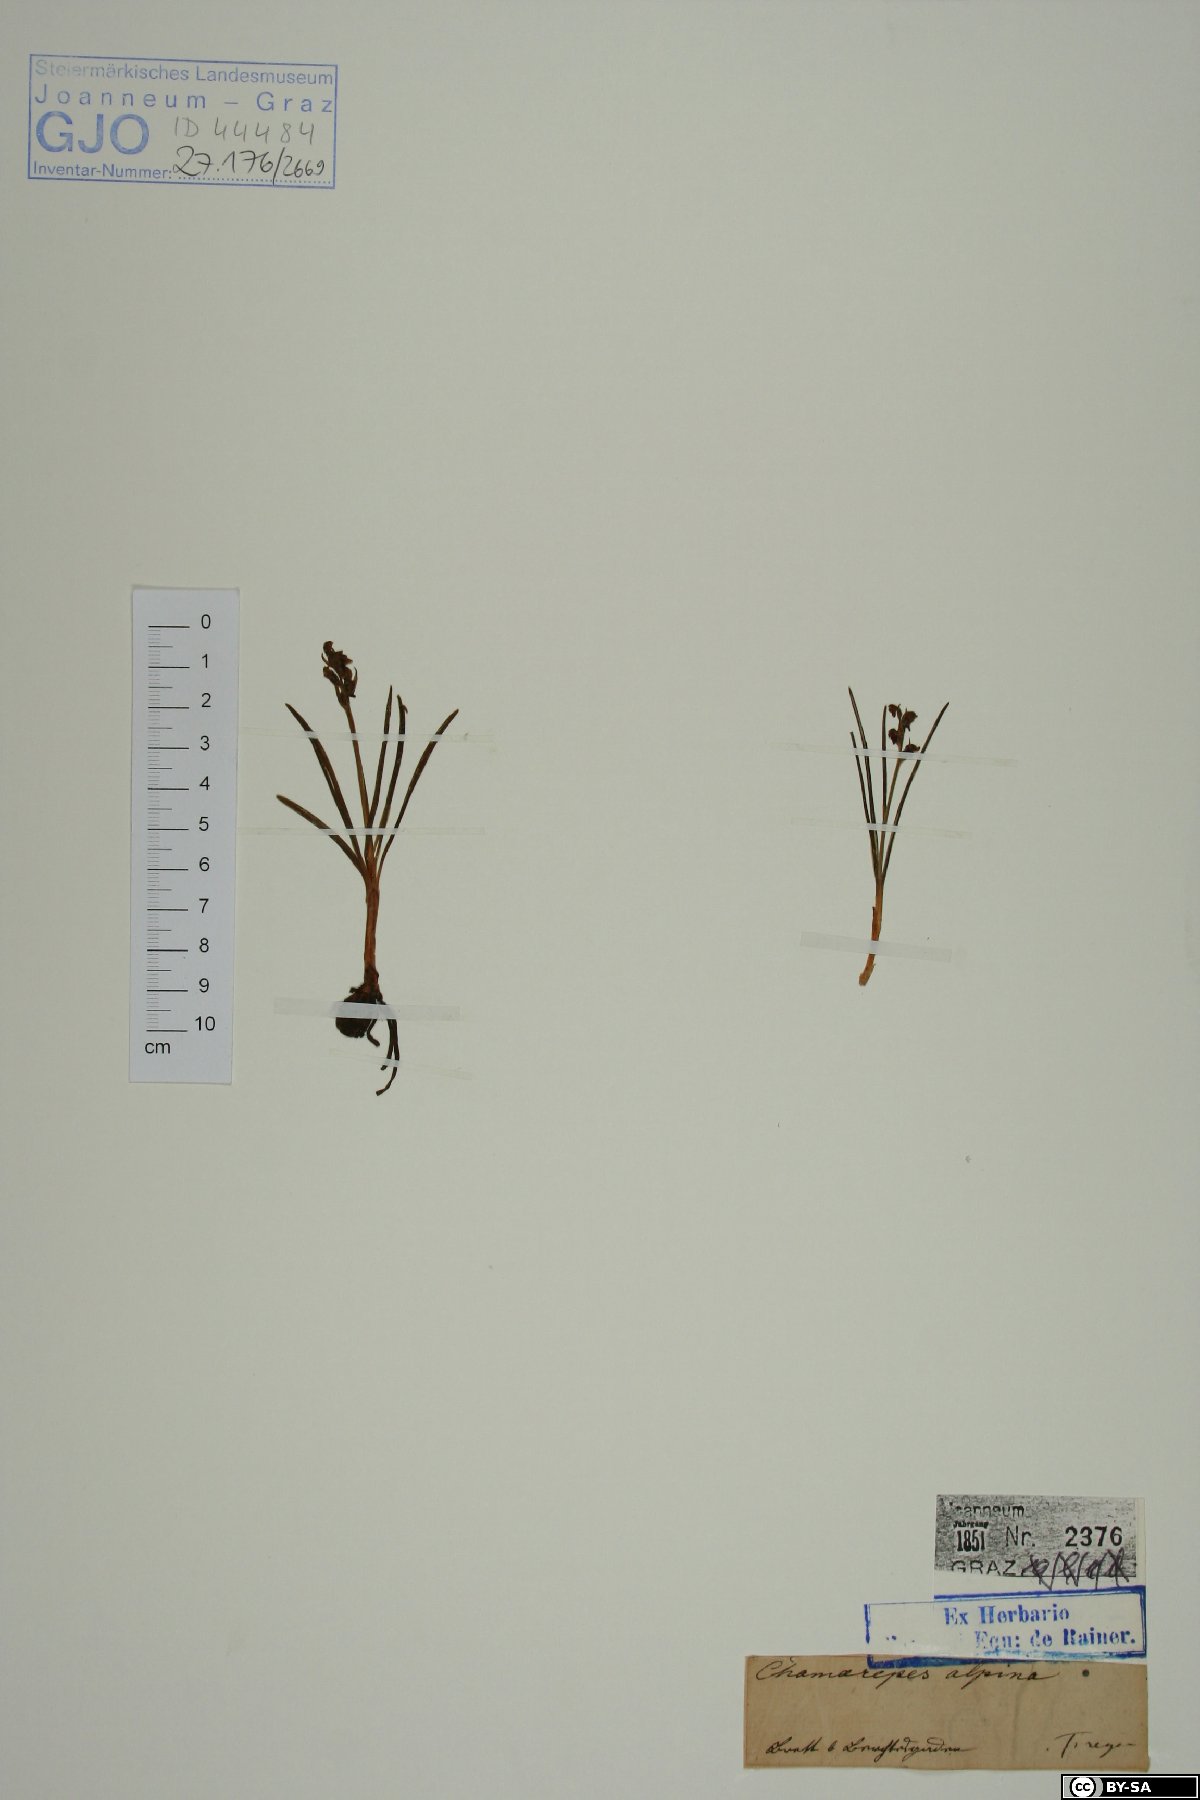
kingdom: Plantae
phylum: Tracheophyta
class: Liliopsida
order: Asparagales
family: Orchidaceae
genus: Chamorchis
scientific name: Chamorchis alpina
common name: Alpine chamorchis
